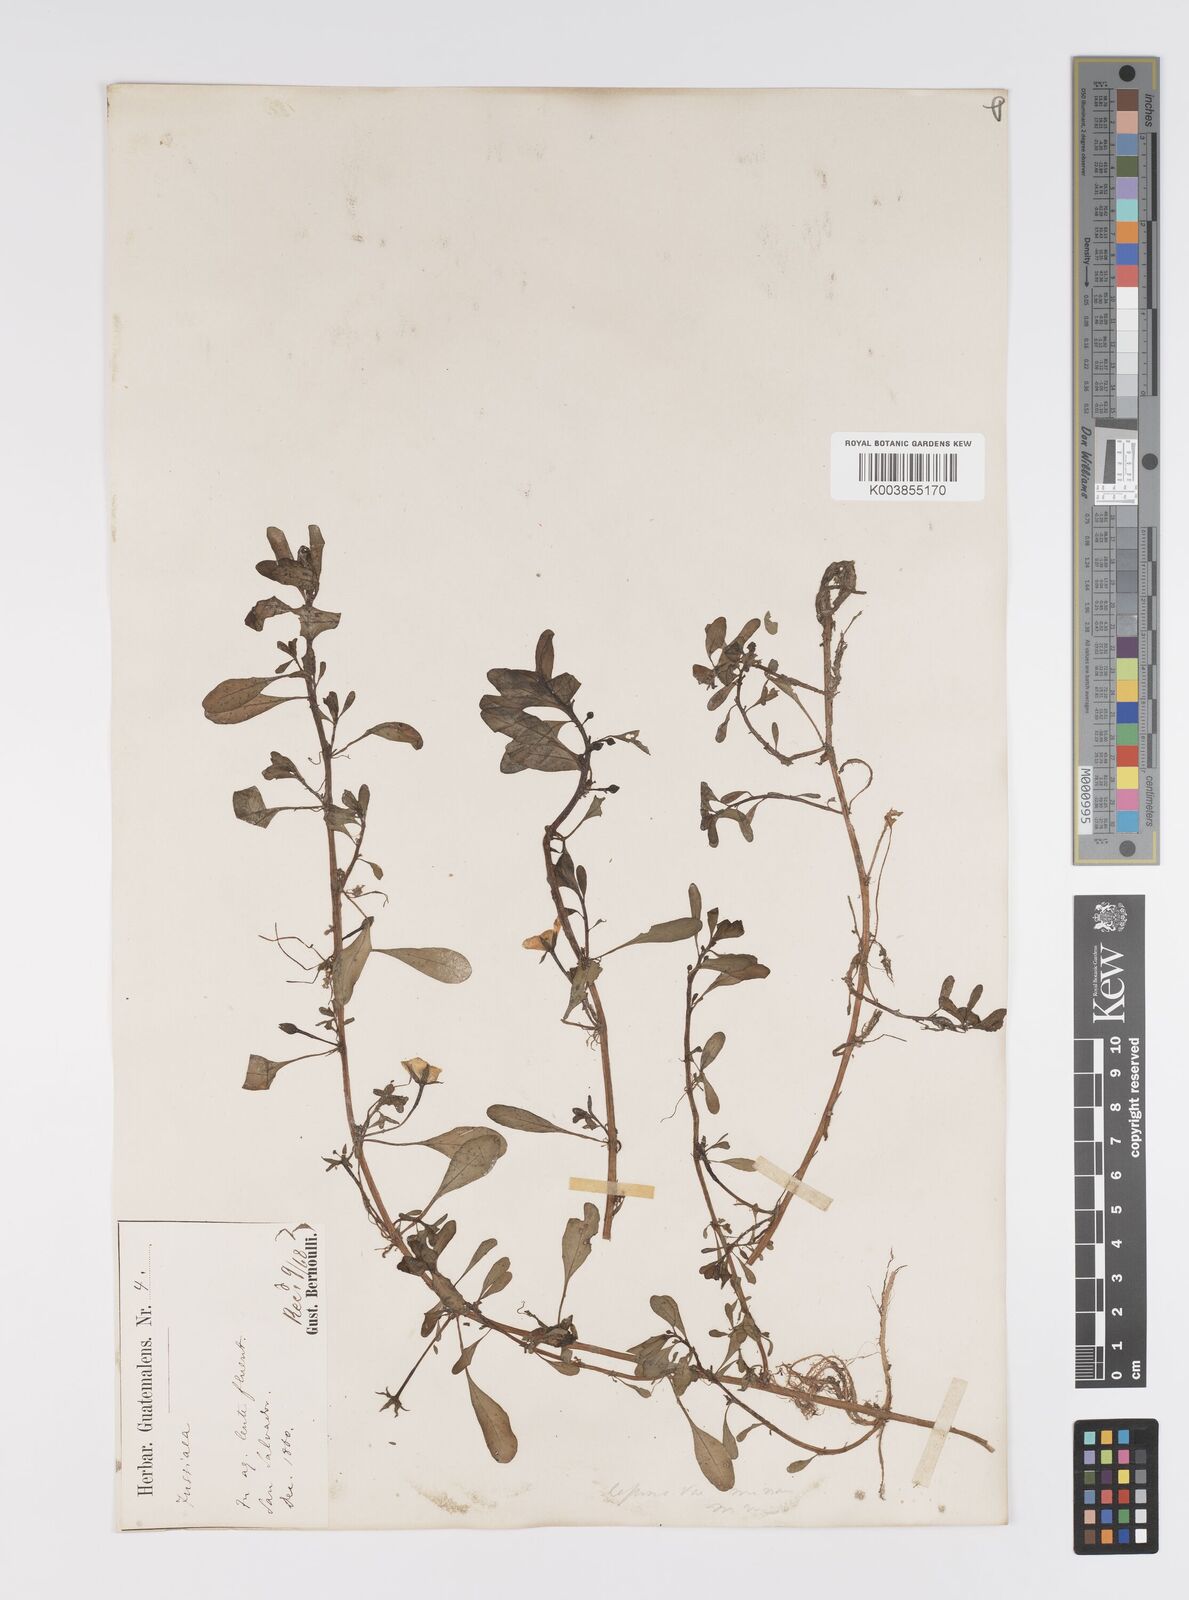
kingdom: Plantae
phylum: Tracheophyta
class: Magnoliopsida
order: Myrtales
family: Onagraceae
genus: Ludwigia
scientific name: Ludwigia adscendens
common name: Creeping water primrose
